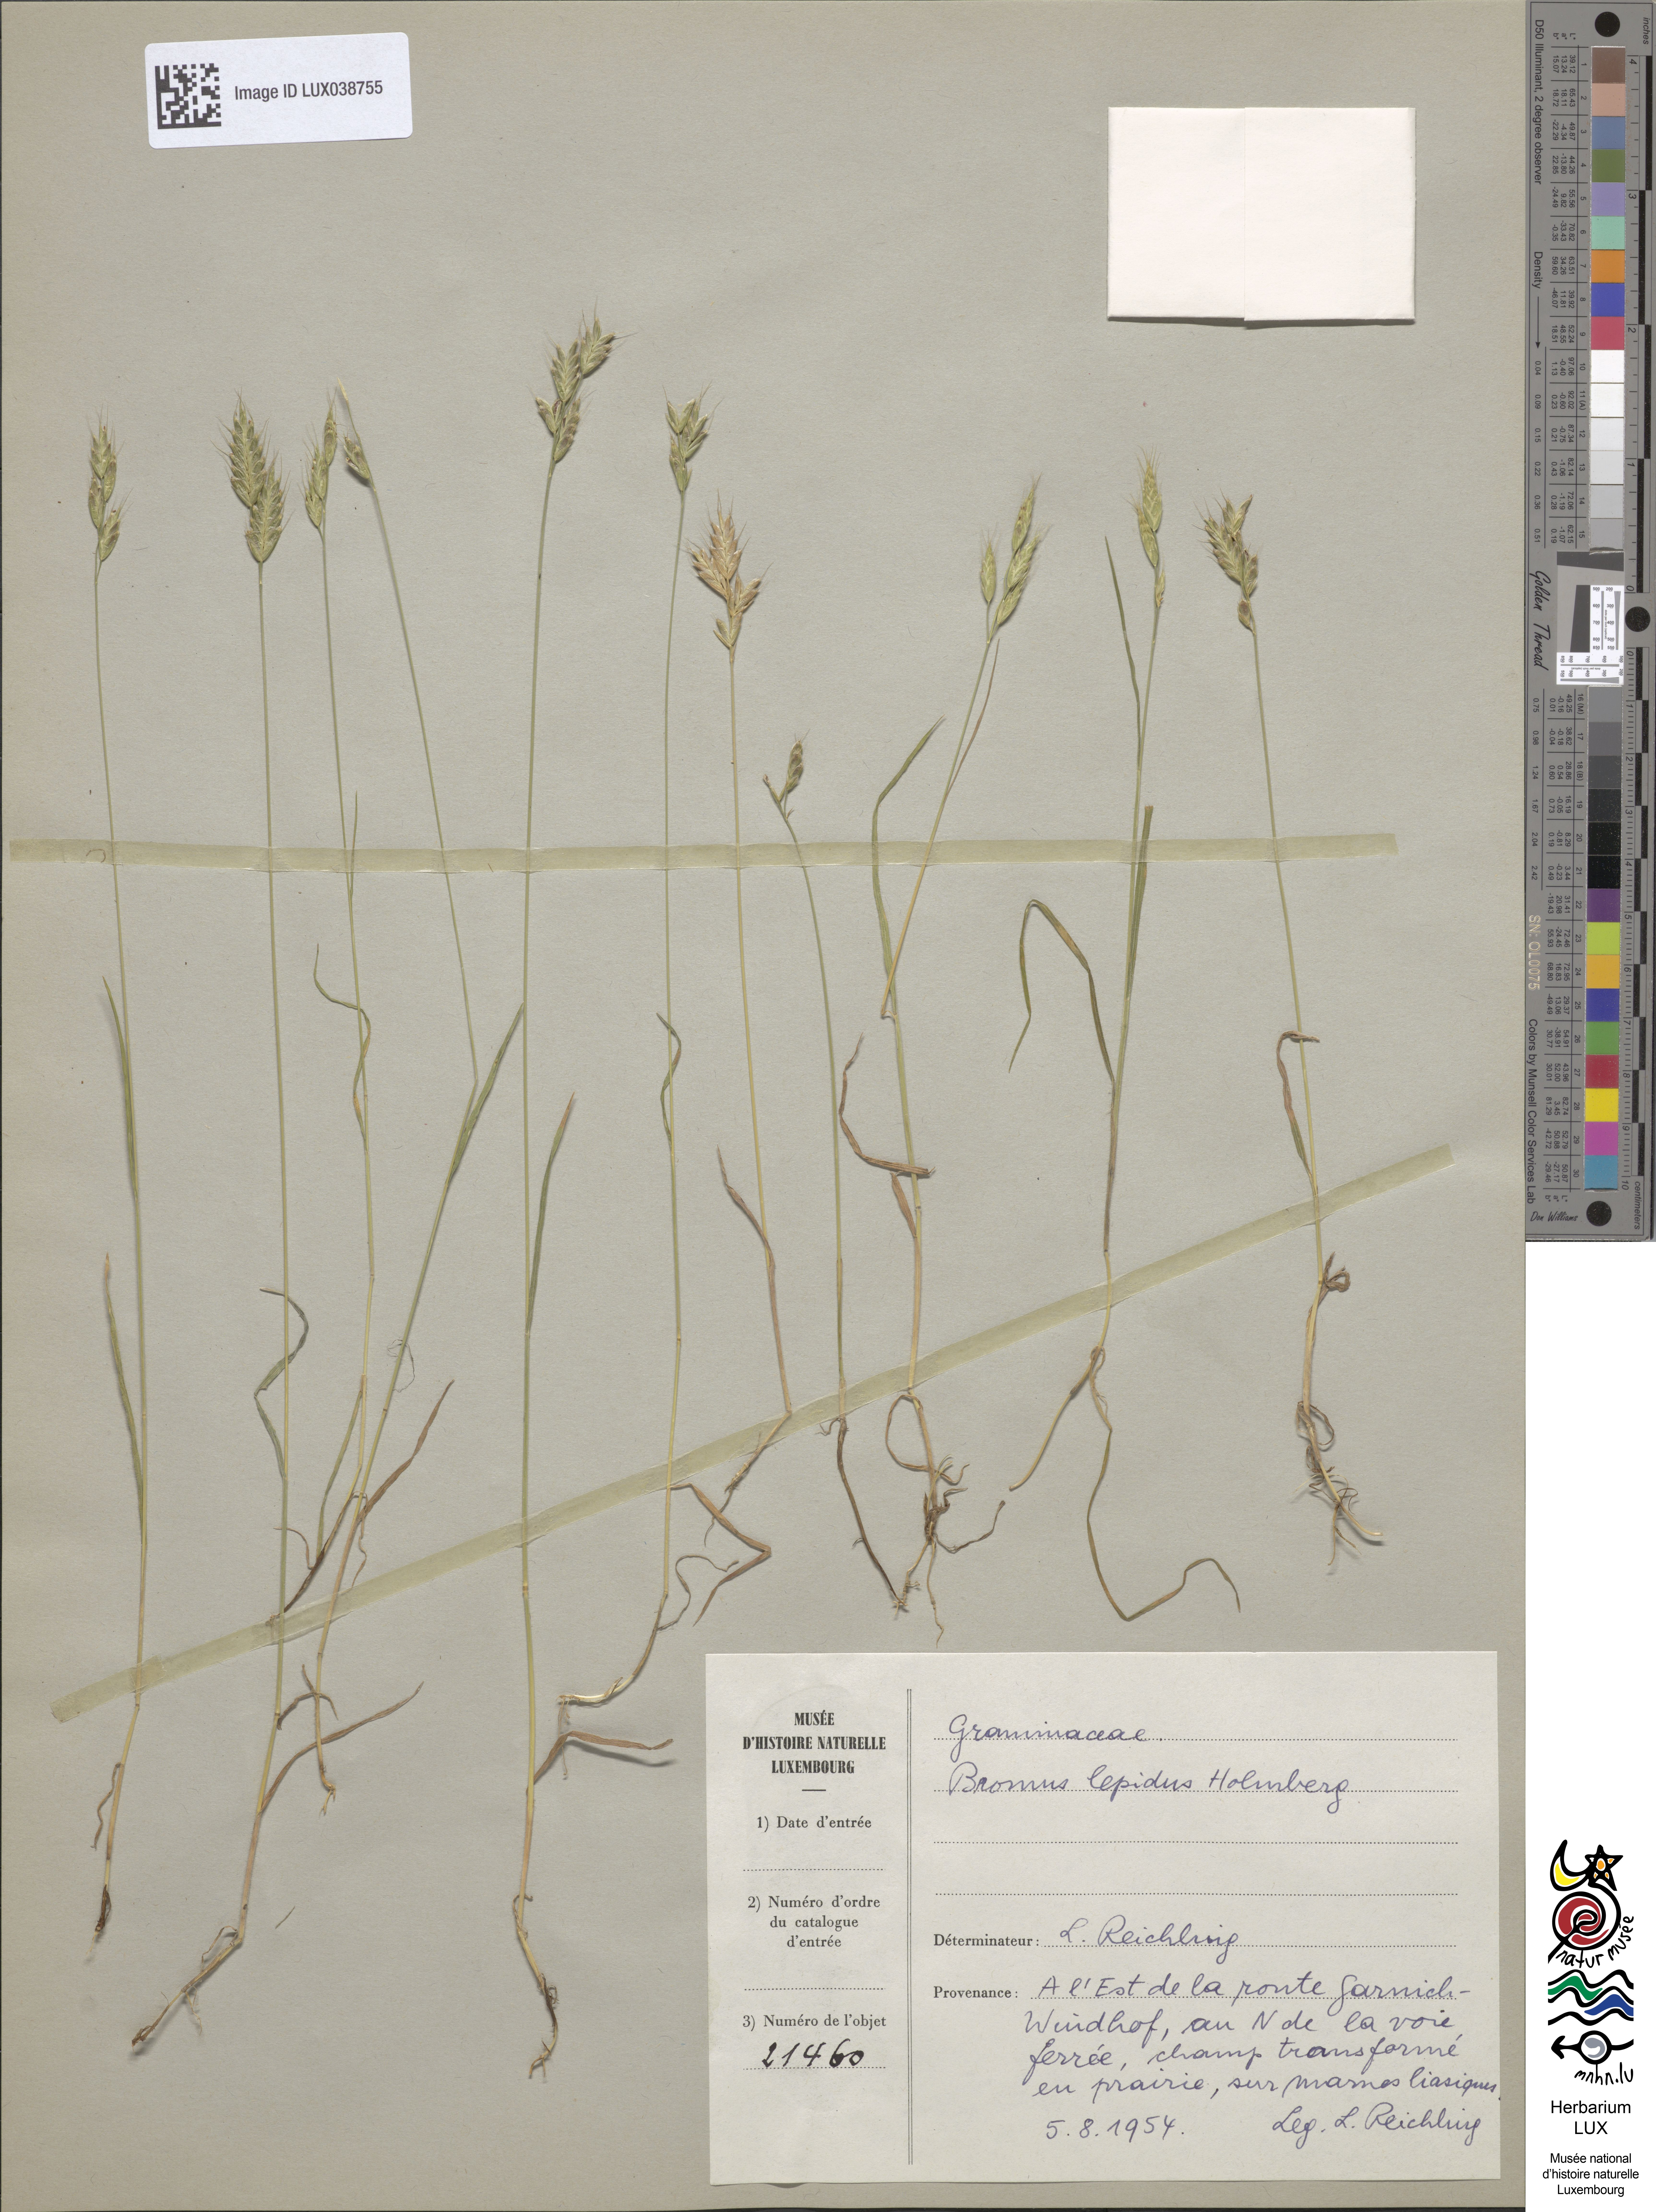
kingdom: Plantae
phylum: Tracheophyta
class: Liliopsida
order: Poales
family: Poaceae
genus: Bromus
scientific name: Bromus lepidus
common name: Slender soft-brome
